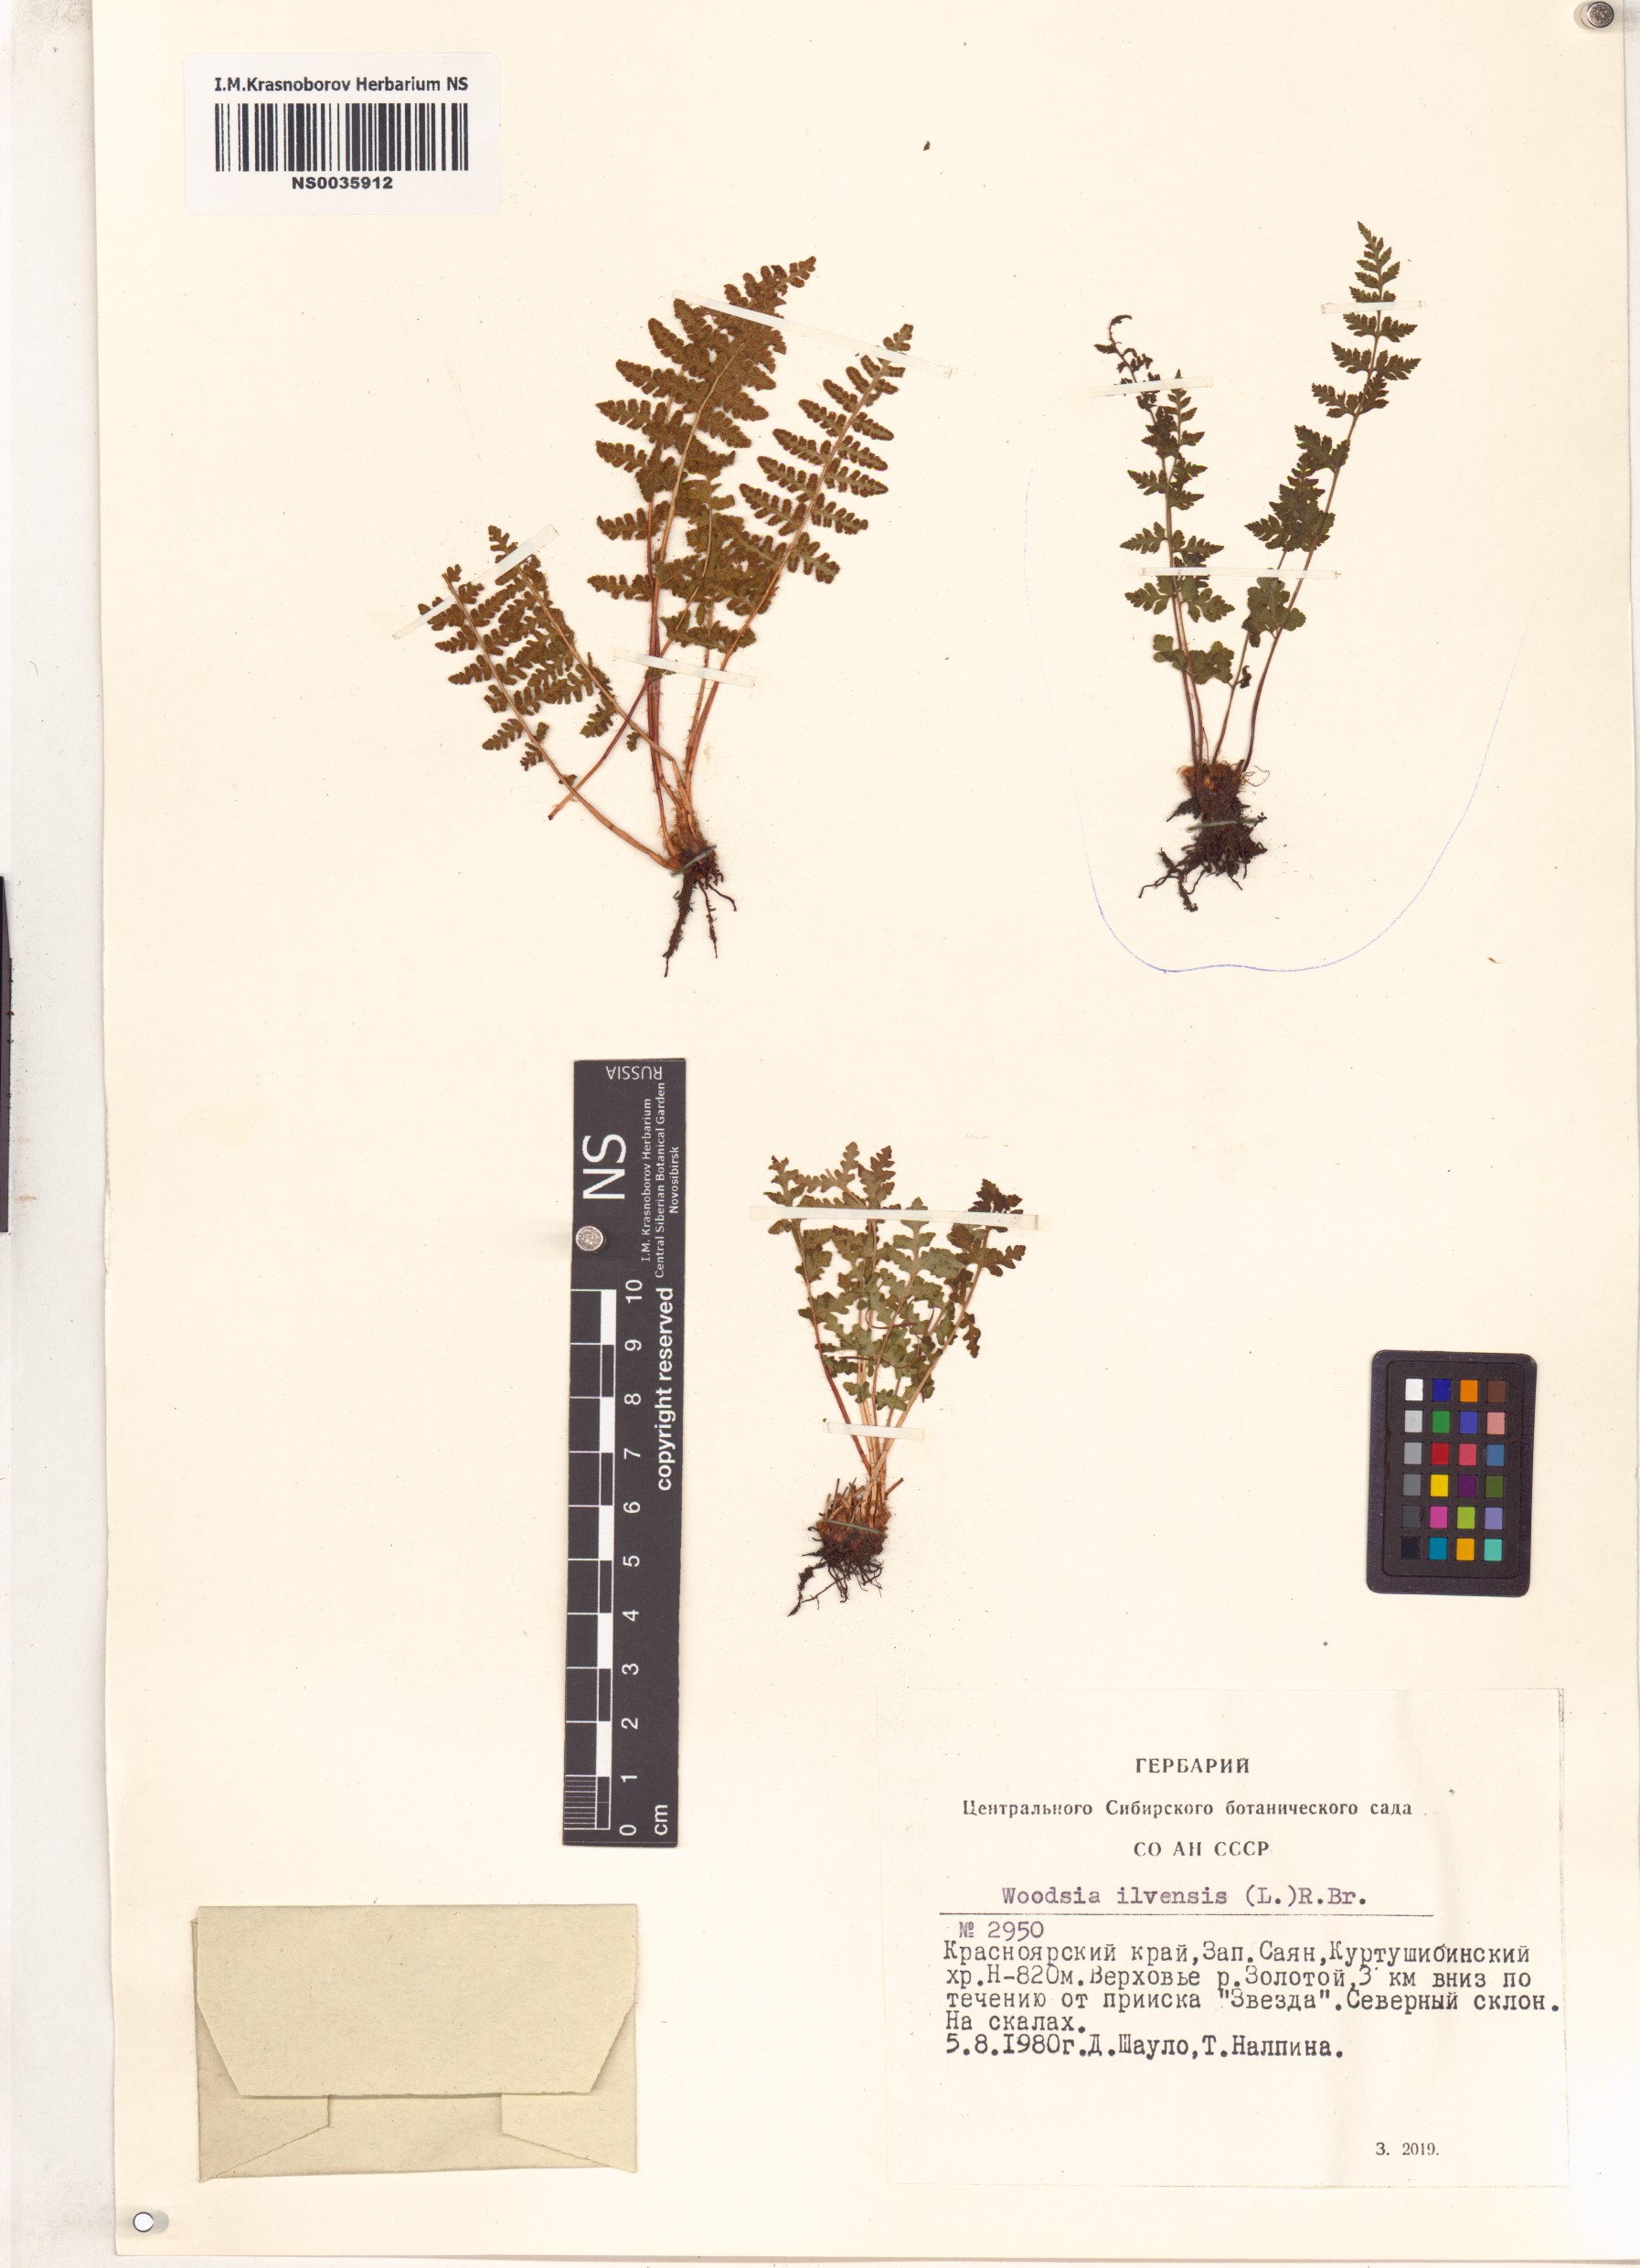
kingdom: Plantae
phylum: Tracheophyta
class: Polypodiopsida
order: Polypodiales
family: Woodsiaceae
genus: Woodsia
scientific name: Woodsia ilvensis
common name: Fragrant woodsia
